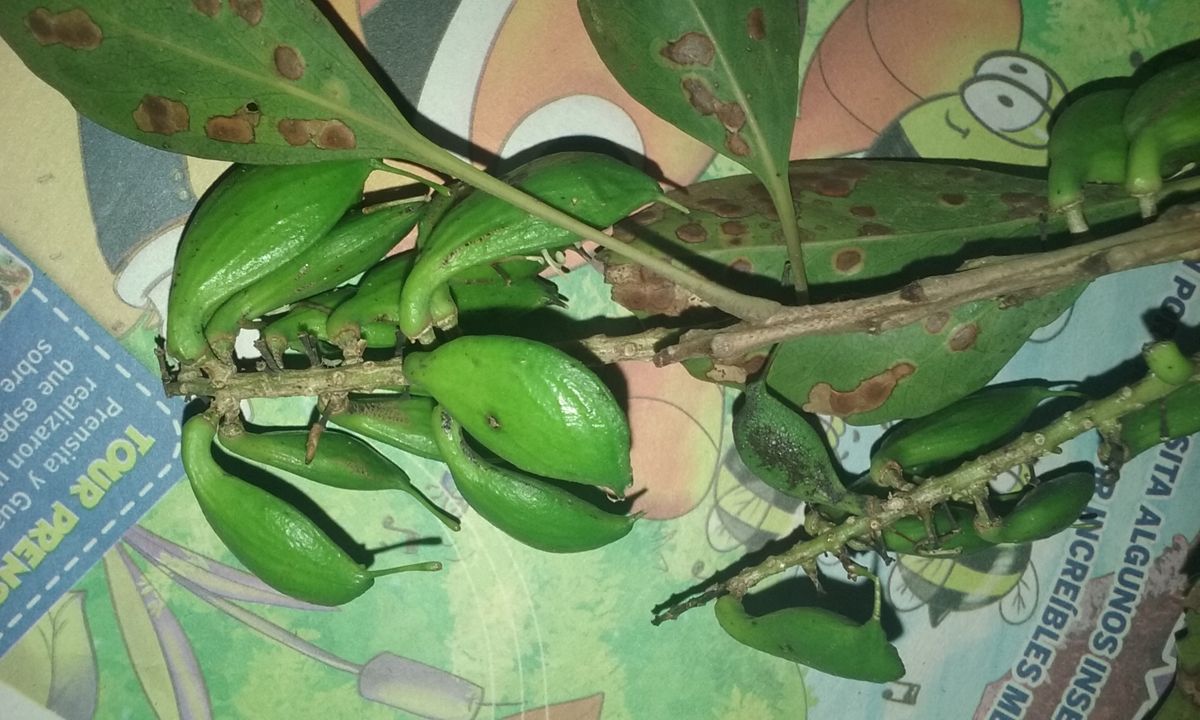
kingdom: Plantae
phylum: Tracheophyta
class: Magnoliopsida
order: Proteales
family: Proteaceae
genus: Roupala
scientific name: Roupala glaberrima
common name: Skunk tree
